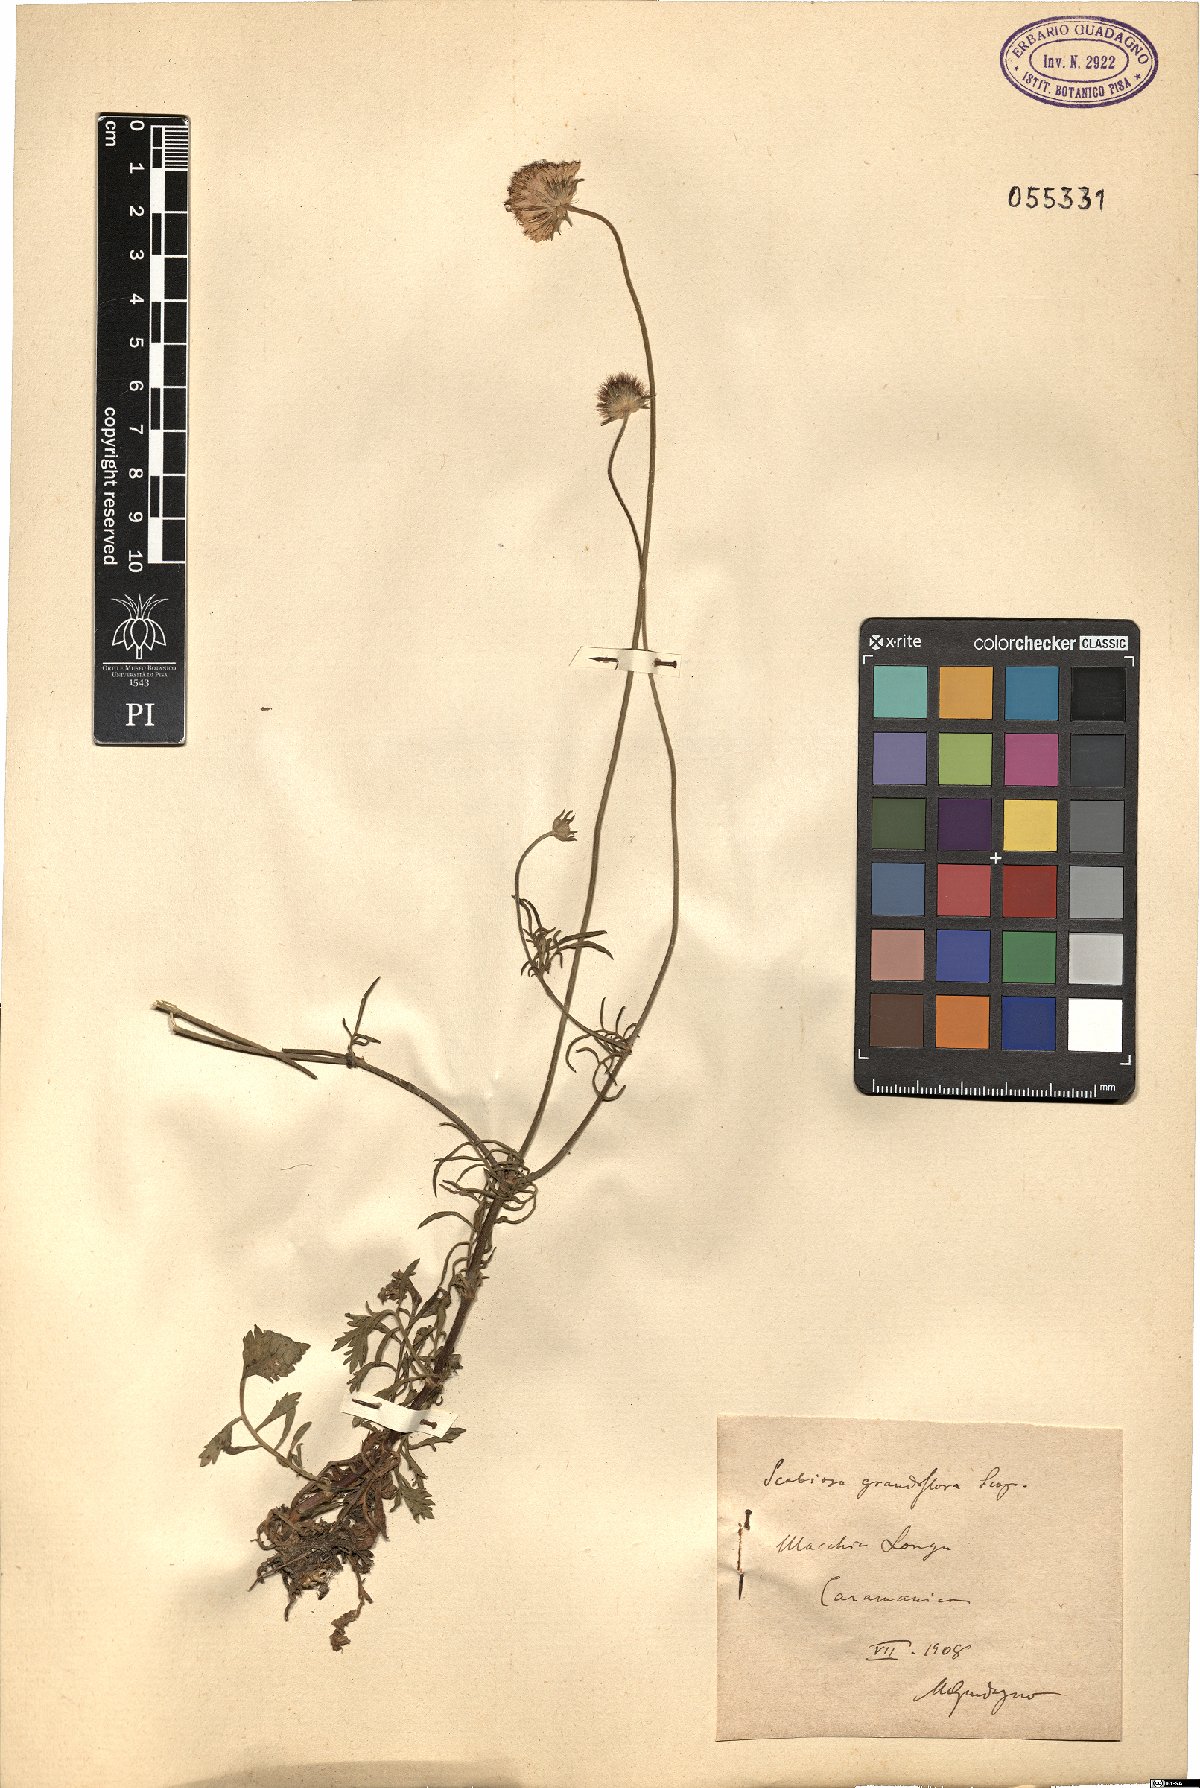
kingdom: Plantae
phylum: Tracheophyta
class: Magnoliopsida
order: Dipsacales
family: Caprifoliaceae
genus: Sixalix
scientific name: Sixalix atropurpurea
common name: Sweet scabious
